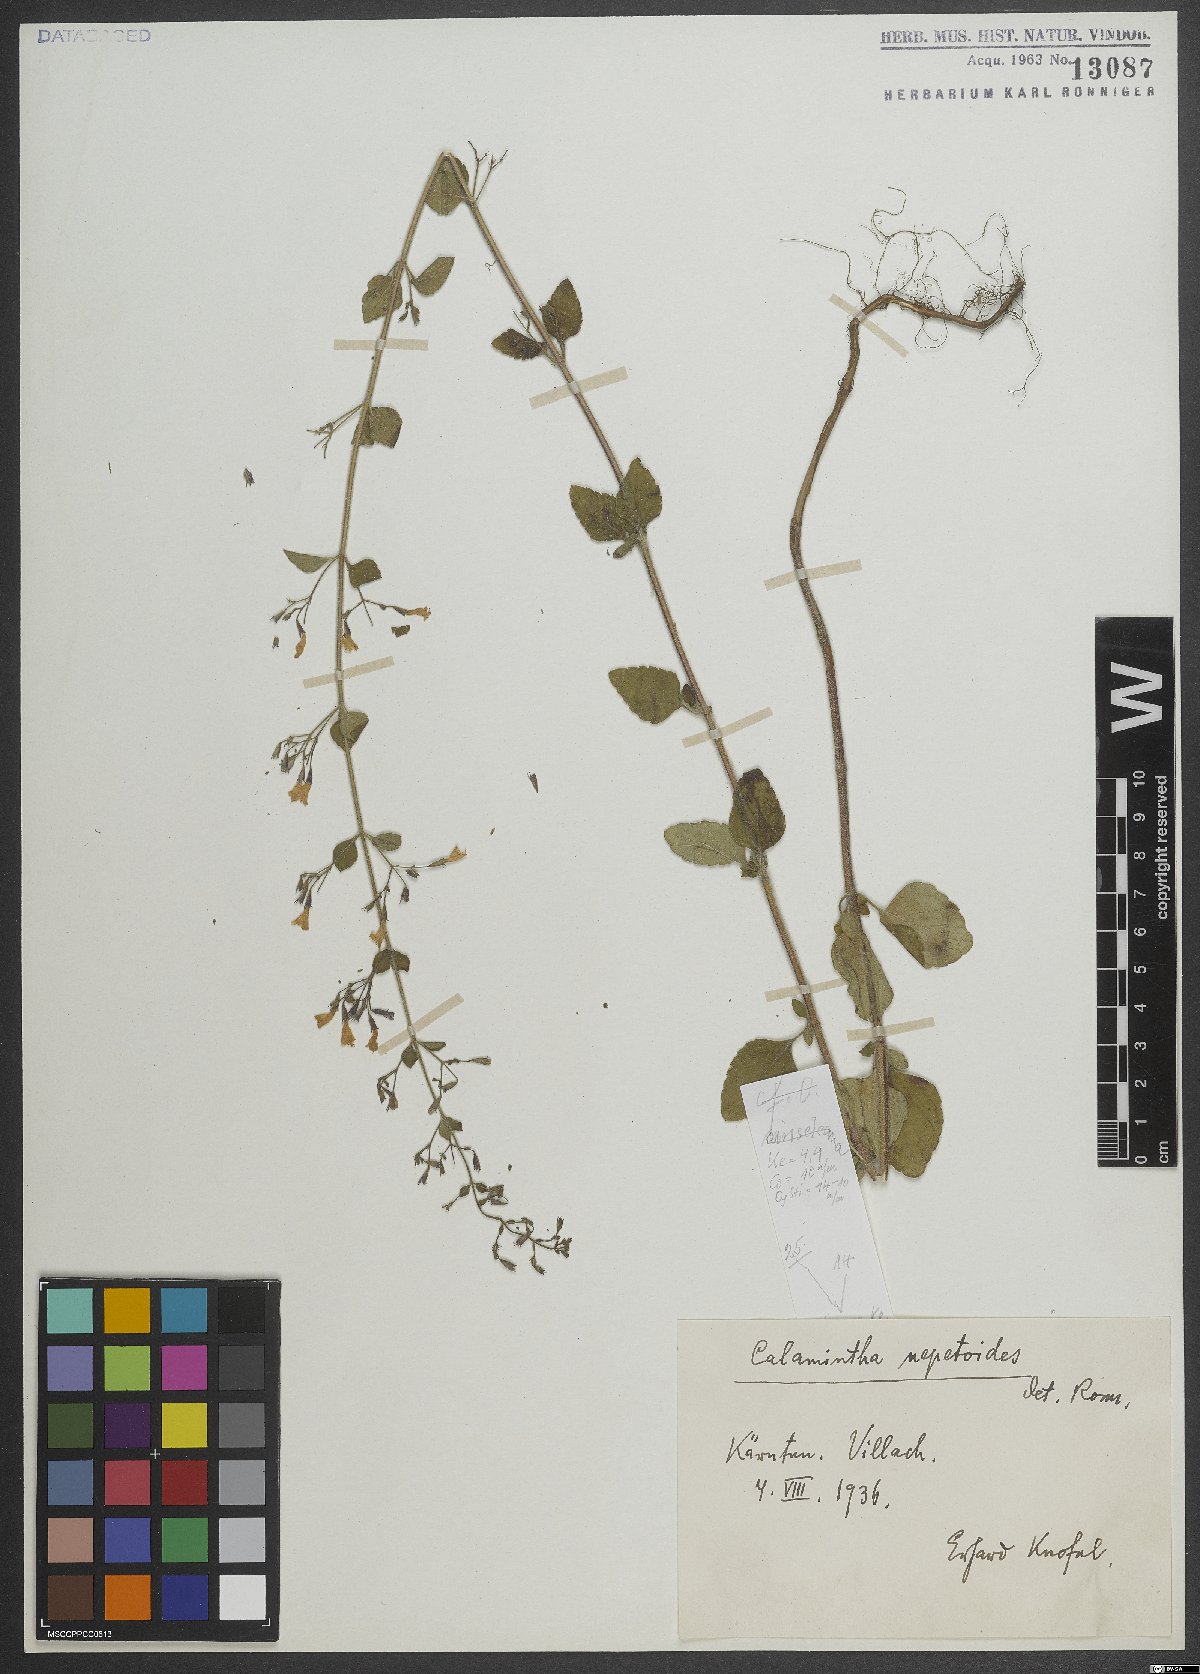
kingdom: Plantae
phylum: Tracheophyta
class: Magnoliopsida
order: Lamiales
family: Lamiaceae
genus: Clinopodium
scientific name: Clinopodium nepeta
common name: Lesser calamint
